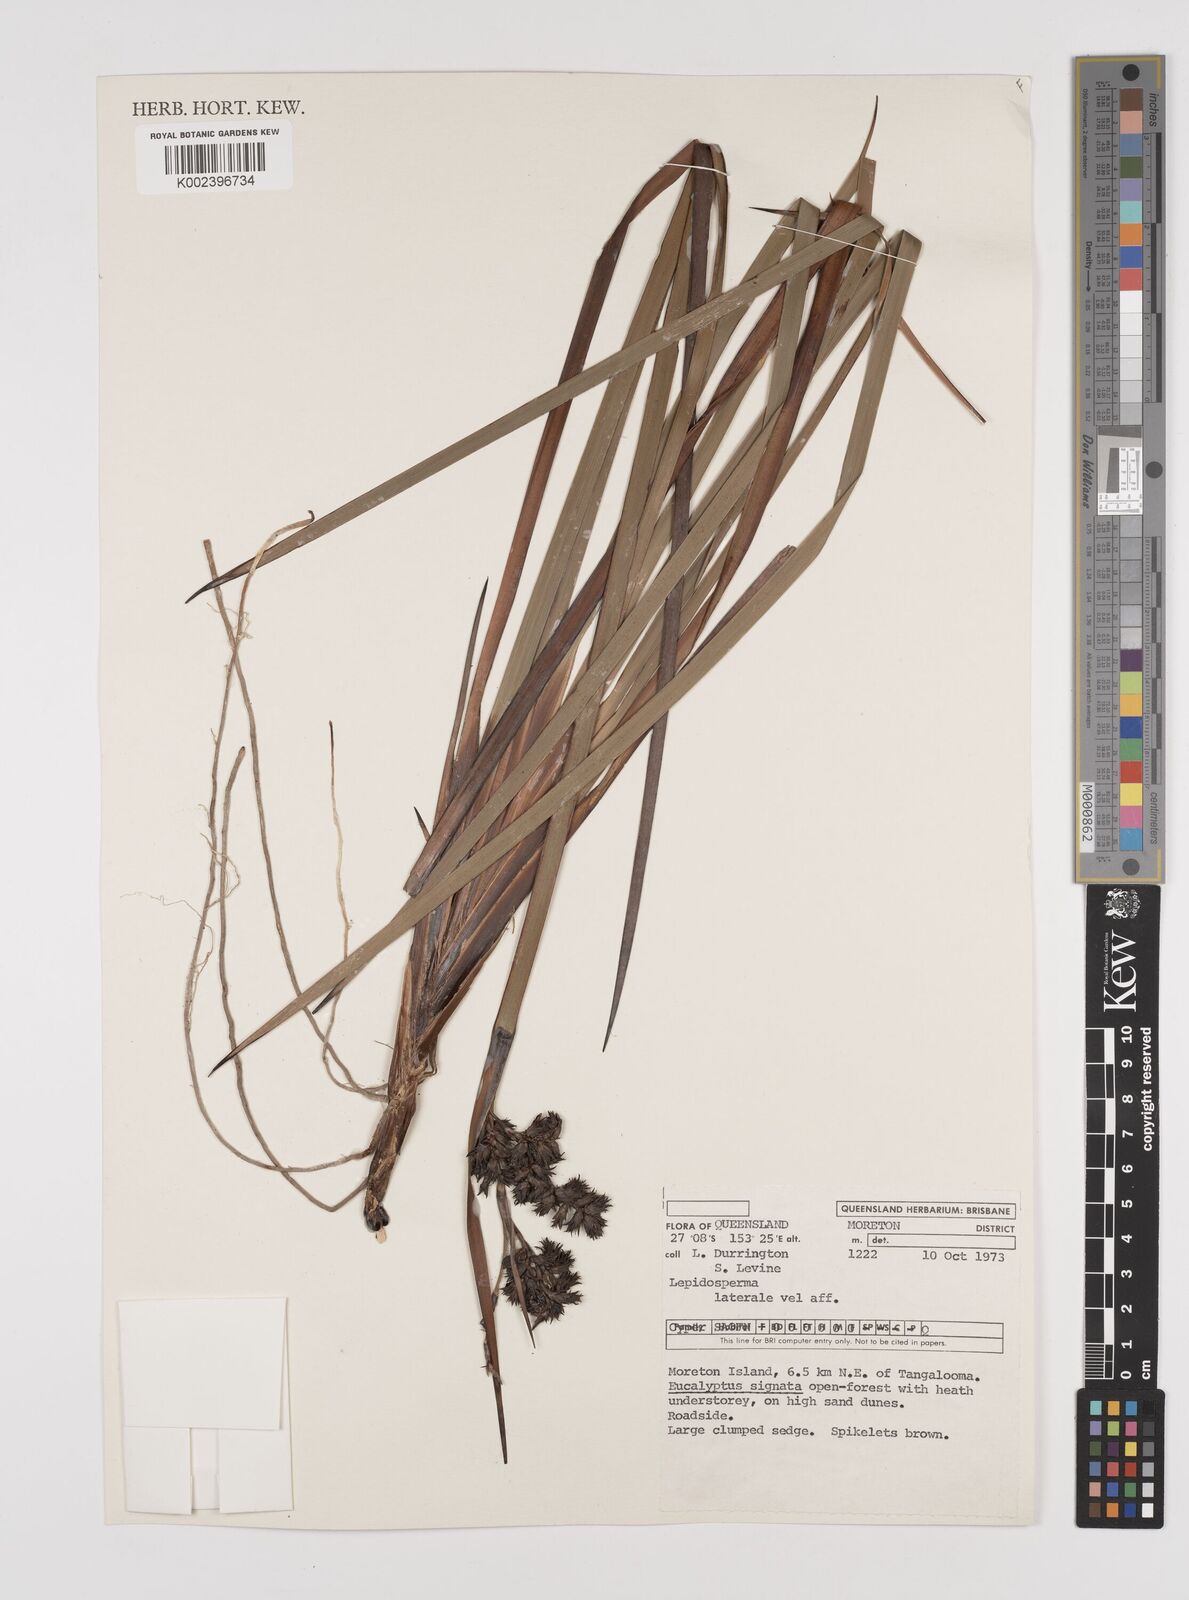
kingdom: Plantae
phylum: Tracheophyta
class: Liliopsida
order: Poales
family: Cyperaceae
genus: Lepidosperma
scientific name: Lepidosperma laterale
